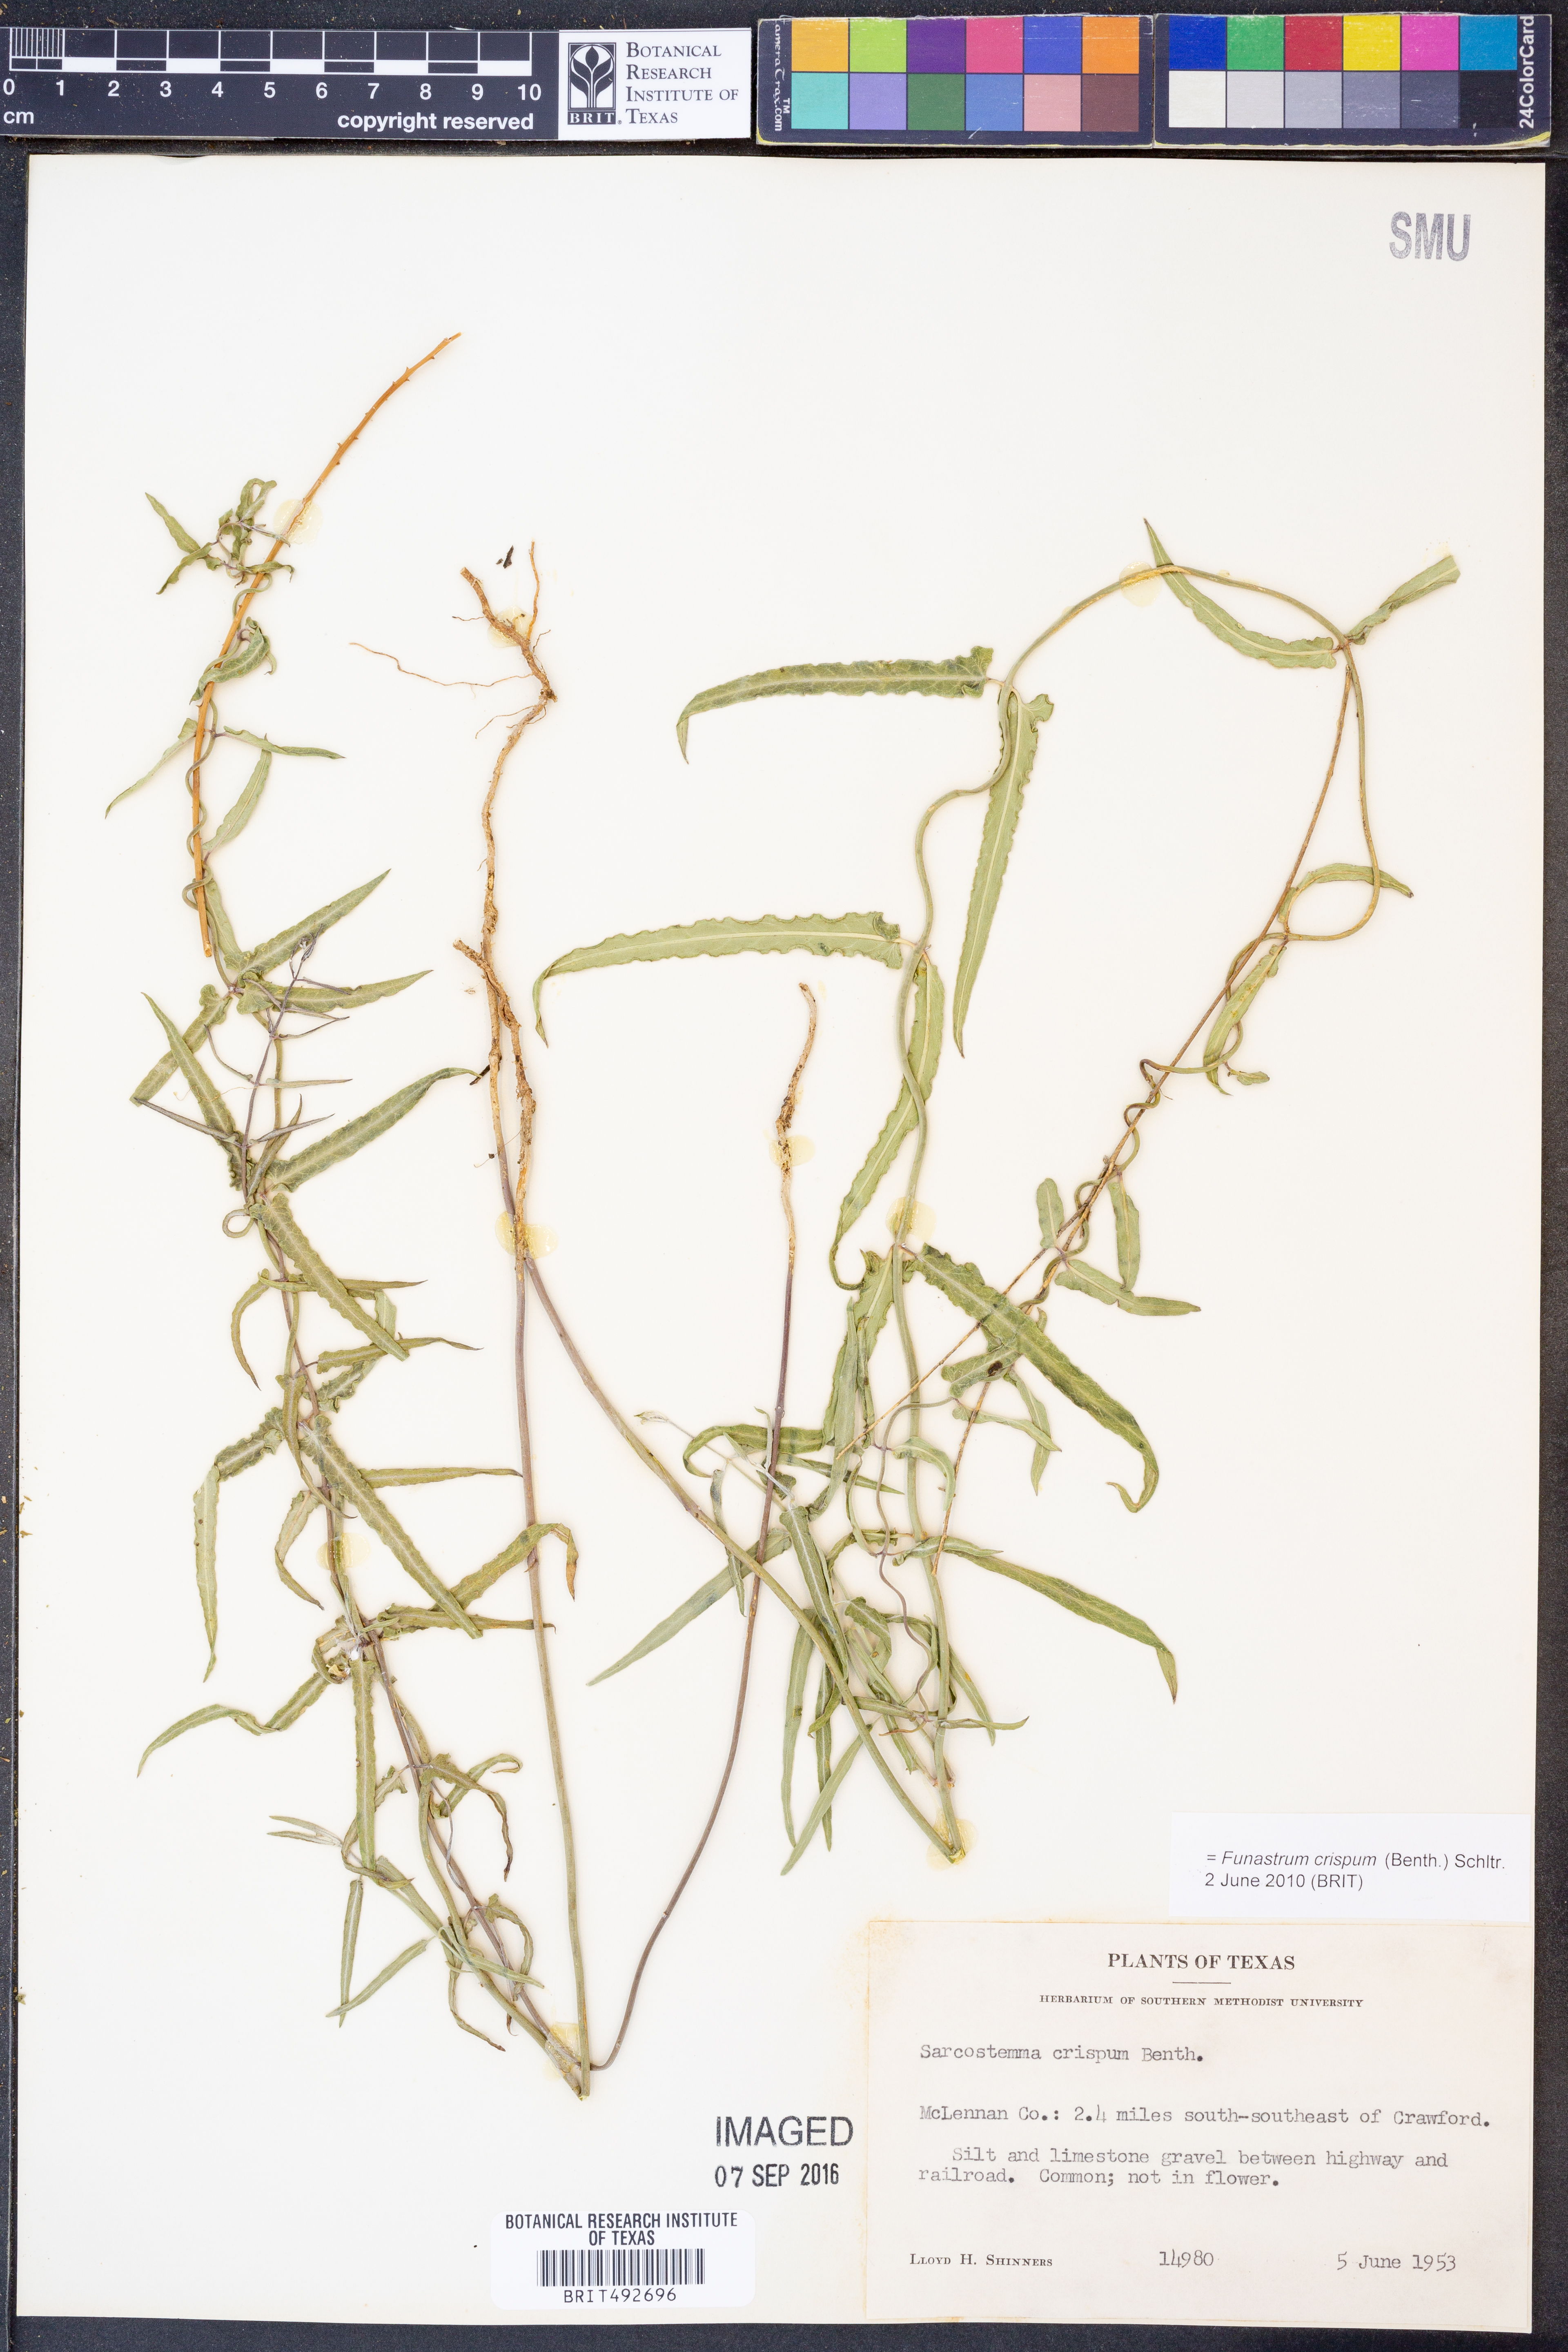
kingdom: Plantae
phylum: Tracheophyta
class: Magnoliopsida
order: Gentianales
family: Apocynaceae
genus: Funastrum
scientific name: Funastrum crispum
